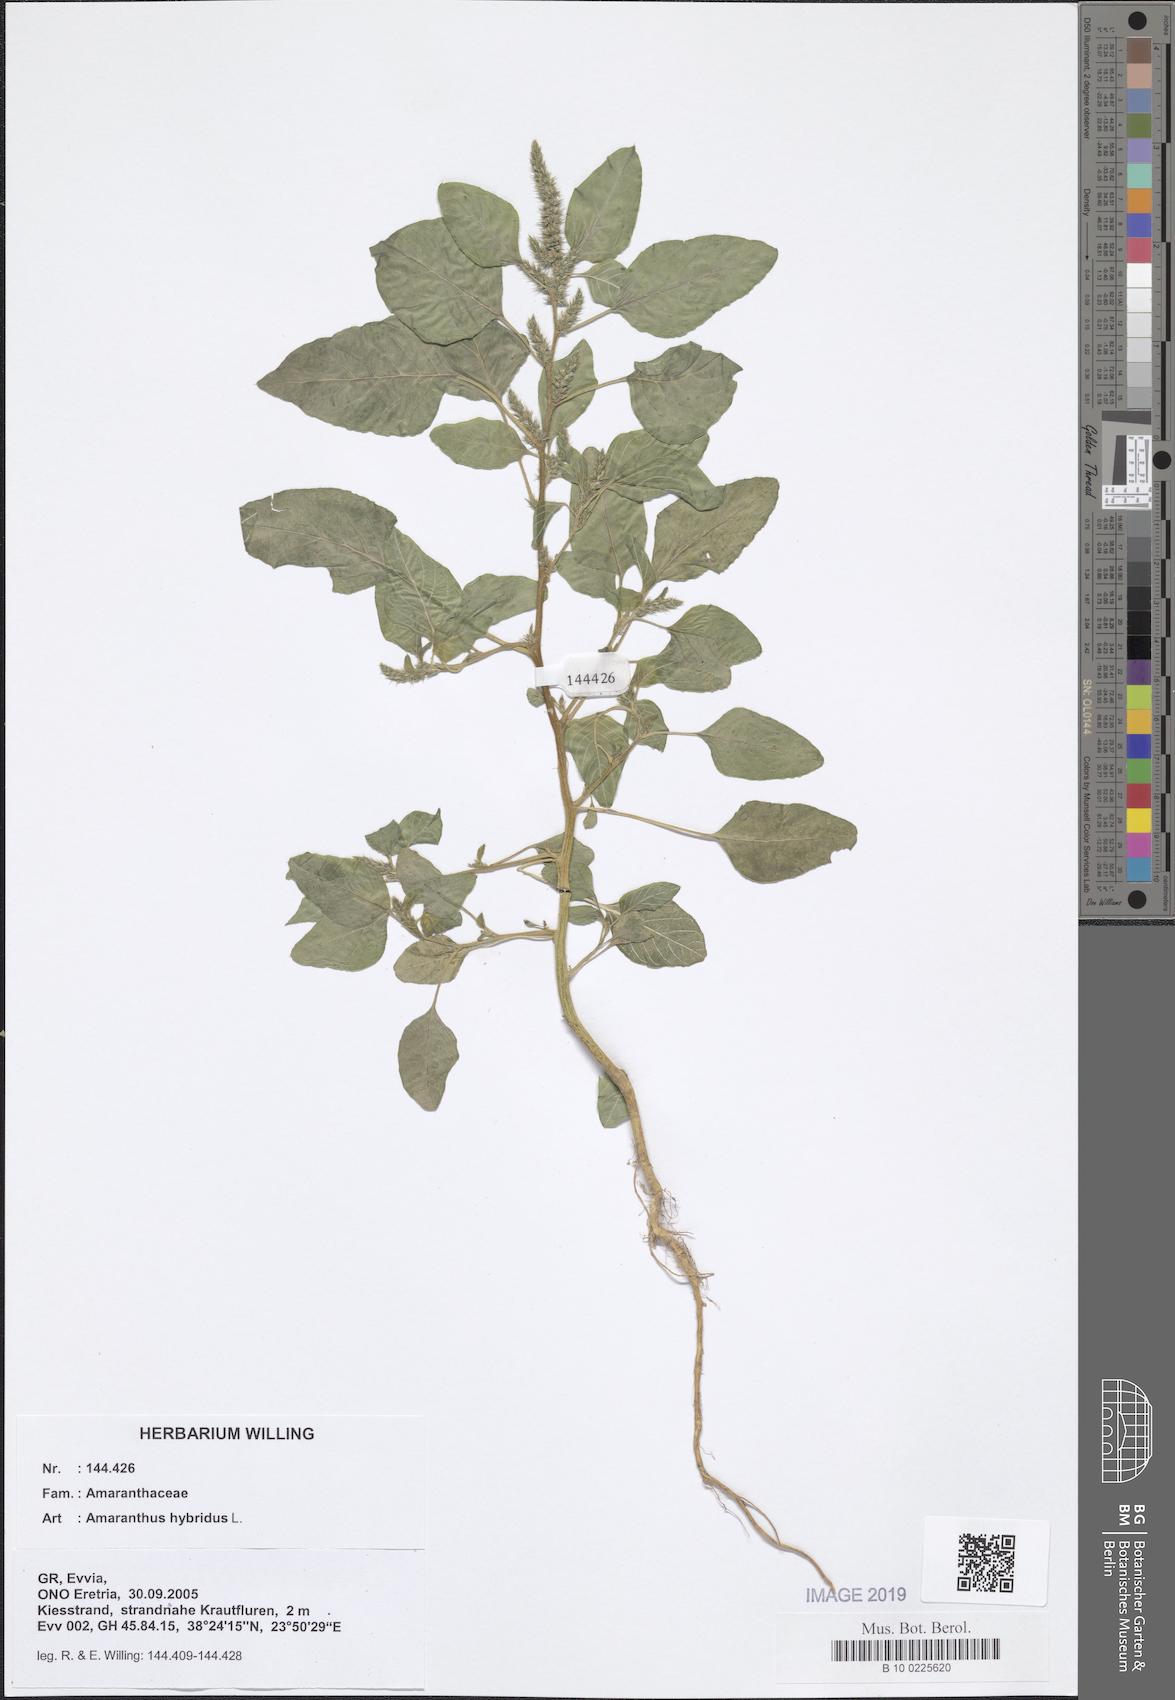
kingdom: Plantae
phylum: Tracheophyta
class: Magnoliopsida
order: Caryophyllales
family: Amaranthaceae
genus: Amaranthus
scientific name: Amaranthus hybridus
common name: Green amaranth
